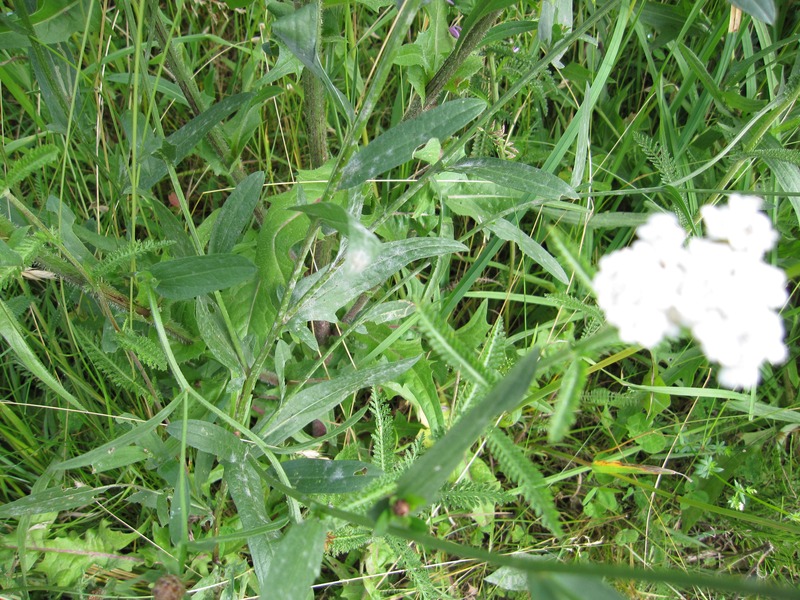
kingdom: Fungi
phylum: Ascomycota
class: Leotiomycetes
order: Helotiales
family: Erysiphaceae
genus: Golovinomyces
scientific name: Golovinomyces cichoracearum
